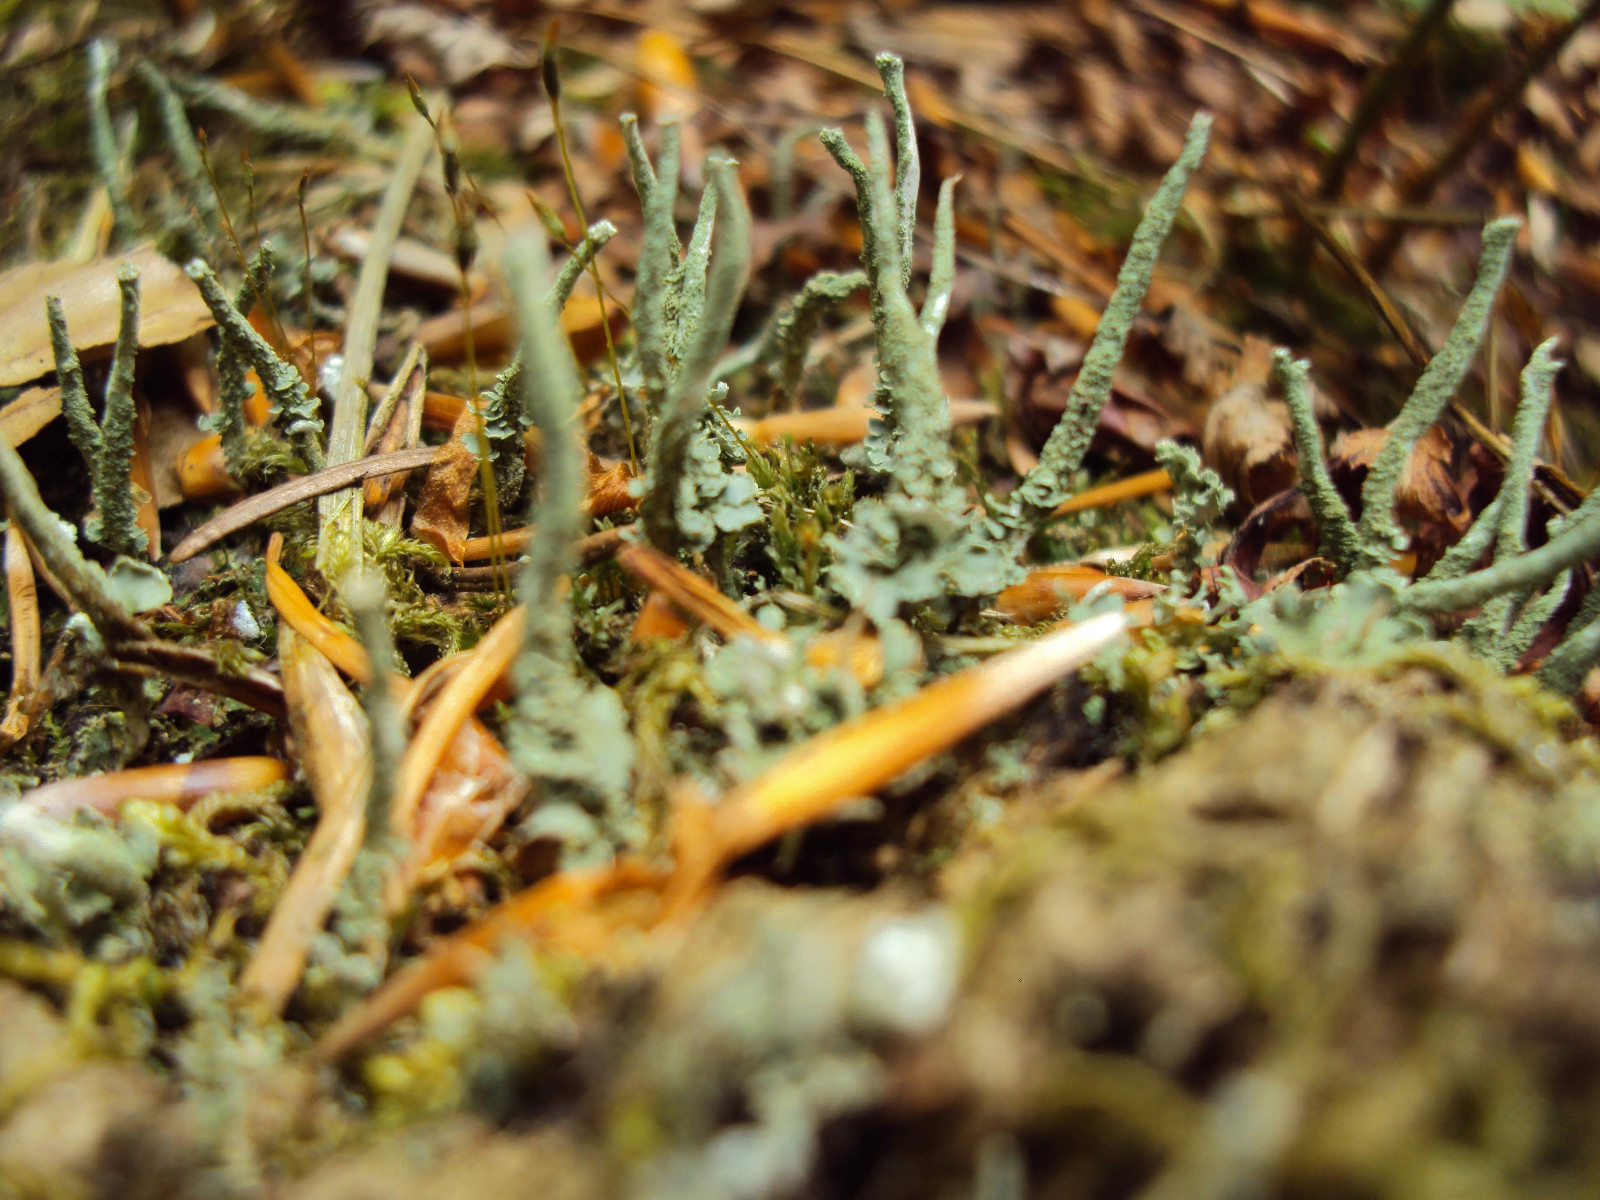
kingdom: Fungi
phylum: Ascomycota
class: Lecanoromycetes
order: Lecanorales
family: Cladoniaceae
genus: Cladonia
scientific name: Cladonia ochrochlora
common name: stød-bægerlav
